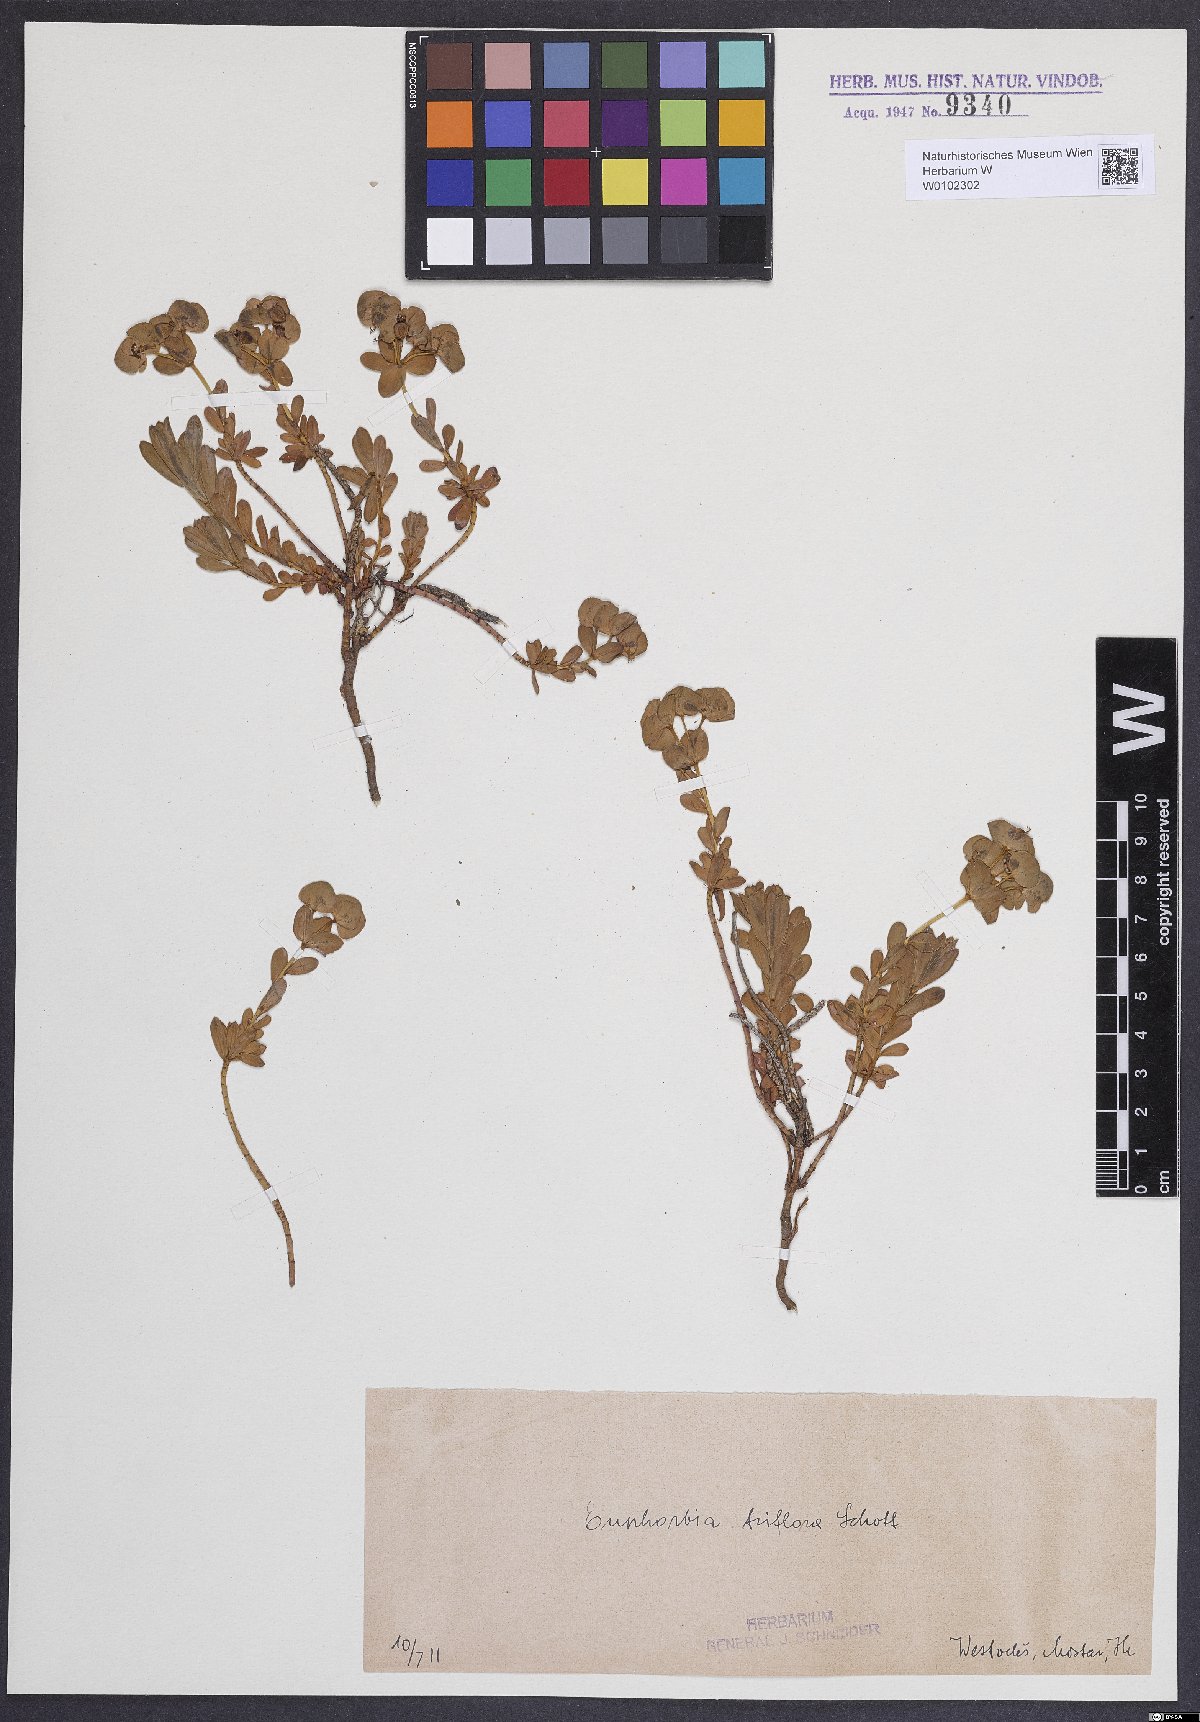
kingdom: Plantae
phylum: Tracheophyta
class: Magnoliopsida
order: Malpighiales
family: Euphorbiaceae
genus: Euphorbia
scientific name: Euphorbia triflora
